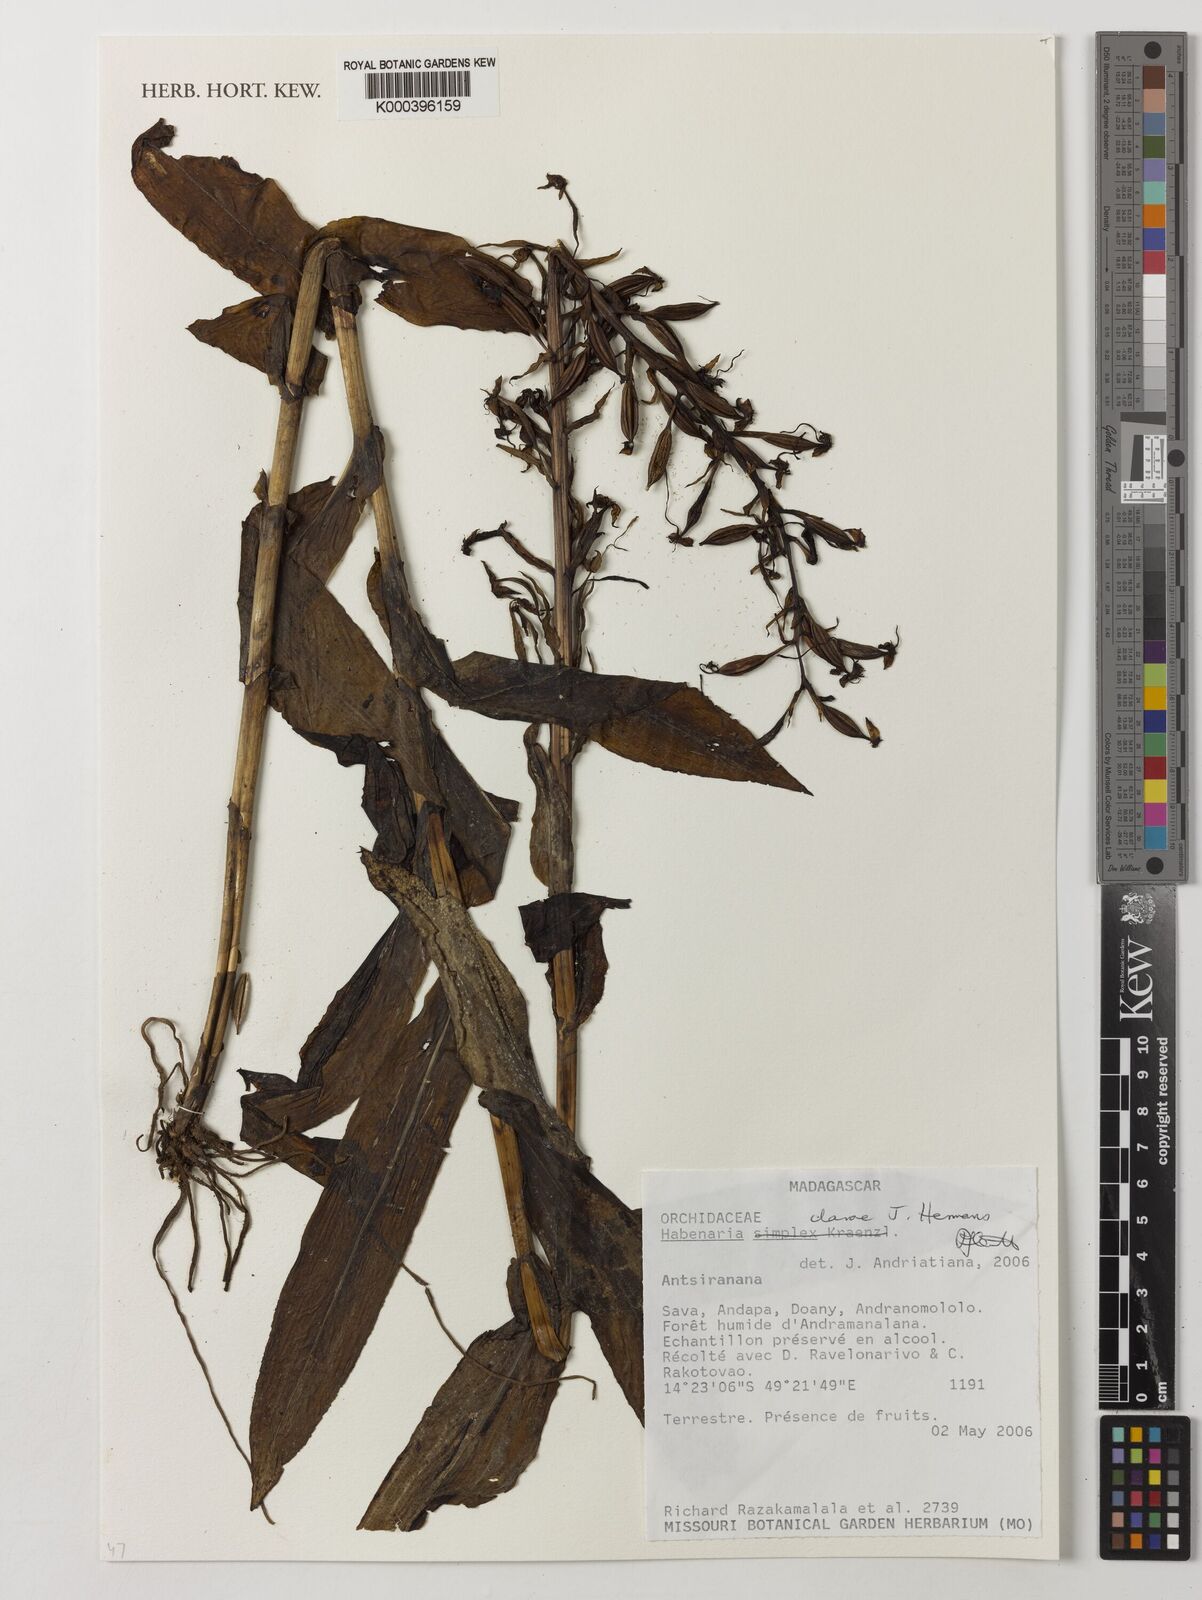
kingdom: Plantae
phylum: Tracheophyta
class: Liliopsida
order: Asparagales
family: Orchidaceae
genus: Habenaria
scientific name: Habenaria clareae
